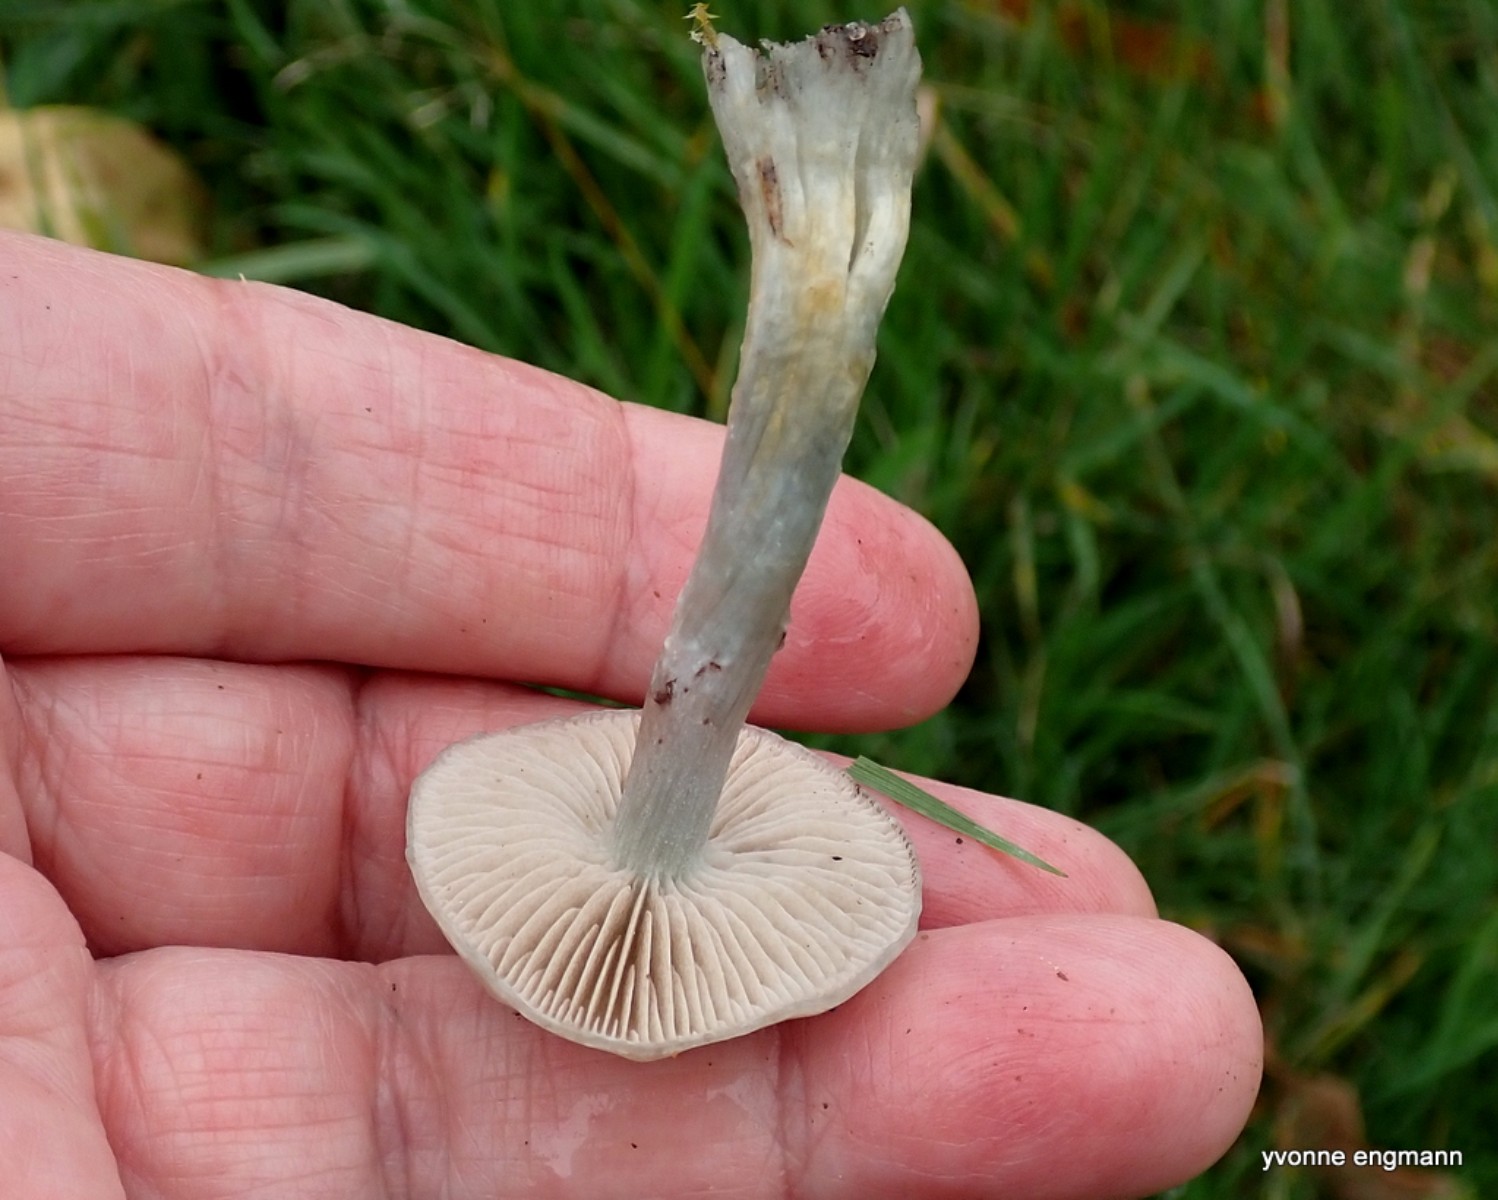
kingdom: Fungi
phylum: Basidiomycota
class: Agaricomycetes
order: Agaricales
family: Strophariaceae
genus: Stropharia
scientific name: Stropharia cyanea
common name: blågrøn bredblad
